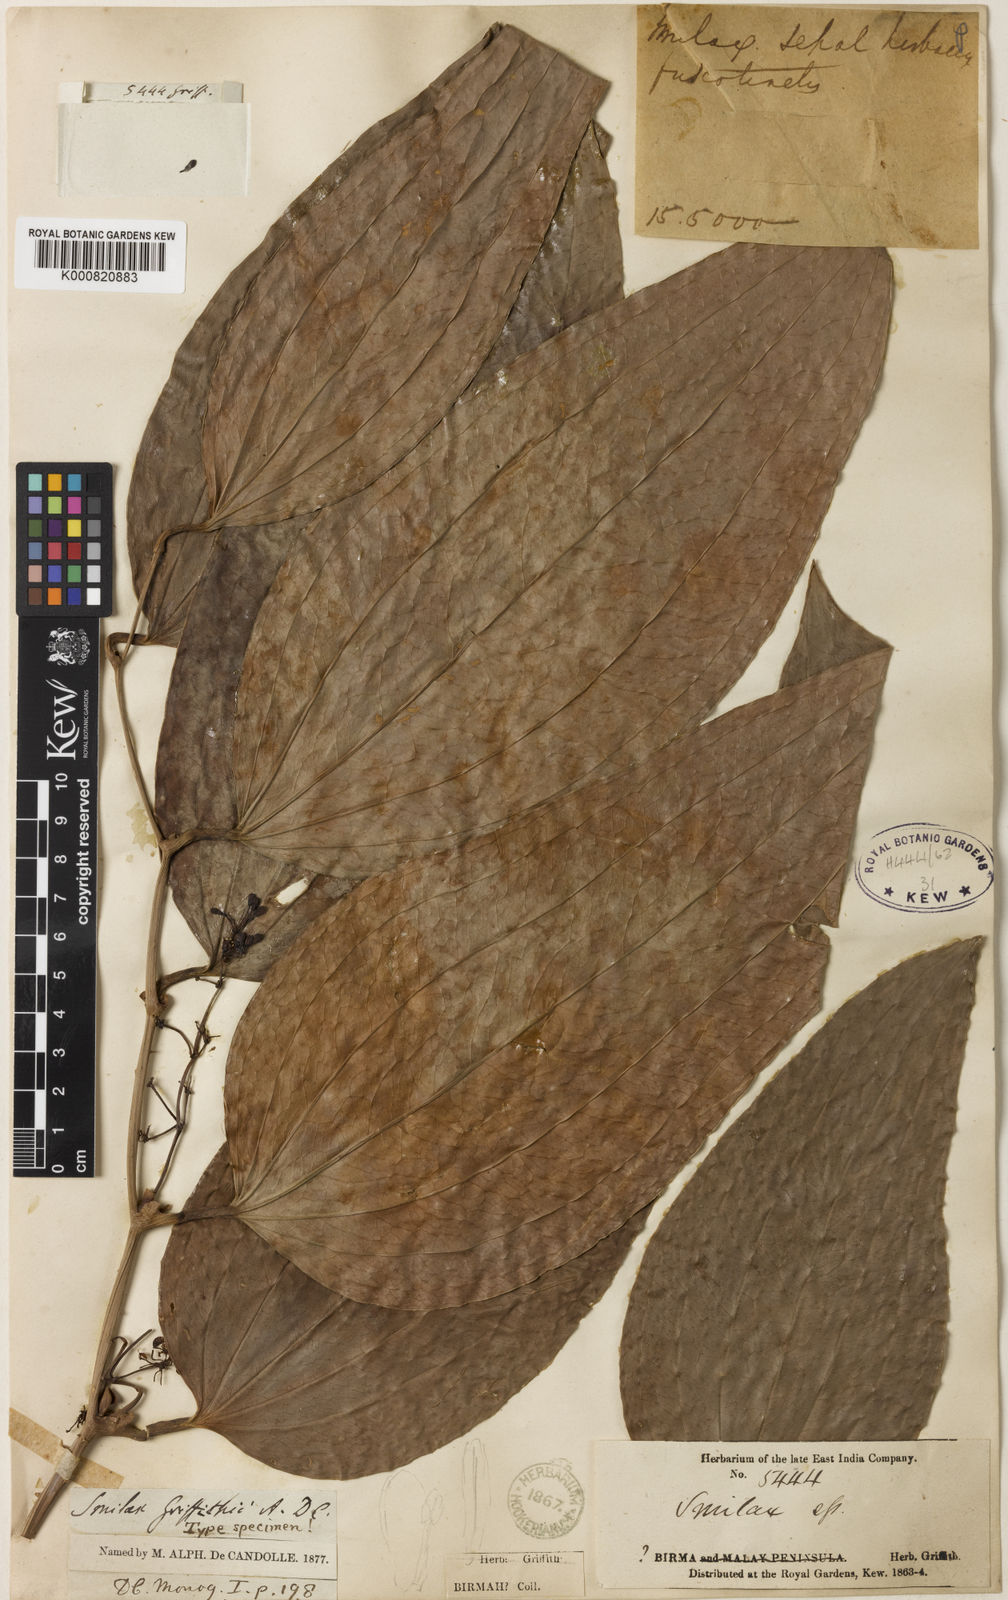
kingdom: Plantae
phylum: Tracheophyta
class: Liliopsida
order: Liliales
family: Smilacaceae
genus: Smilax
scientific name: Smilax griffithii
